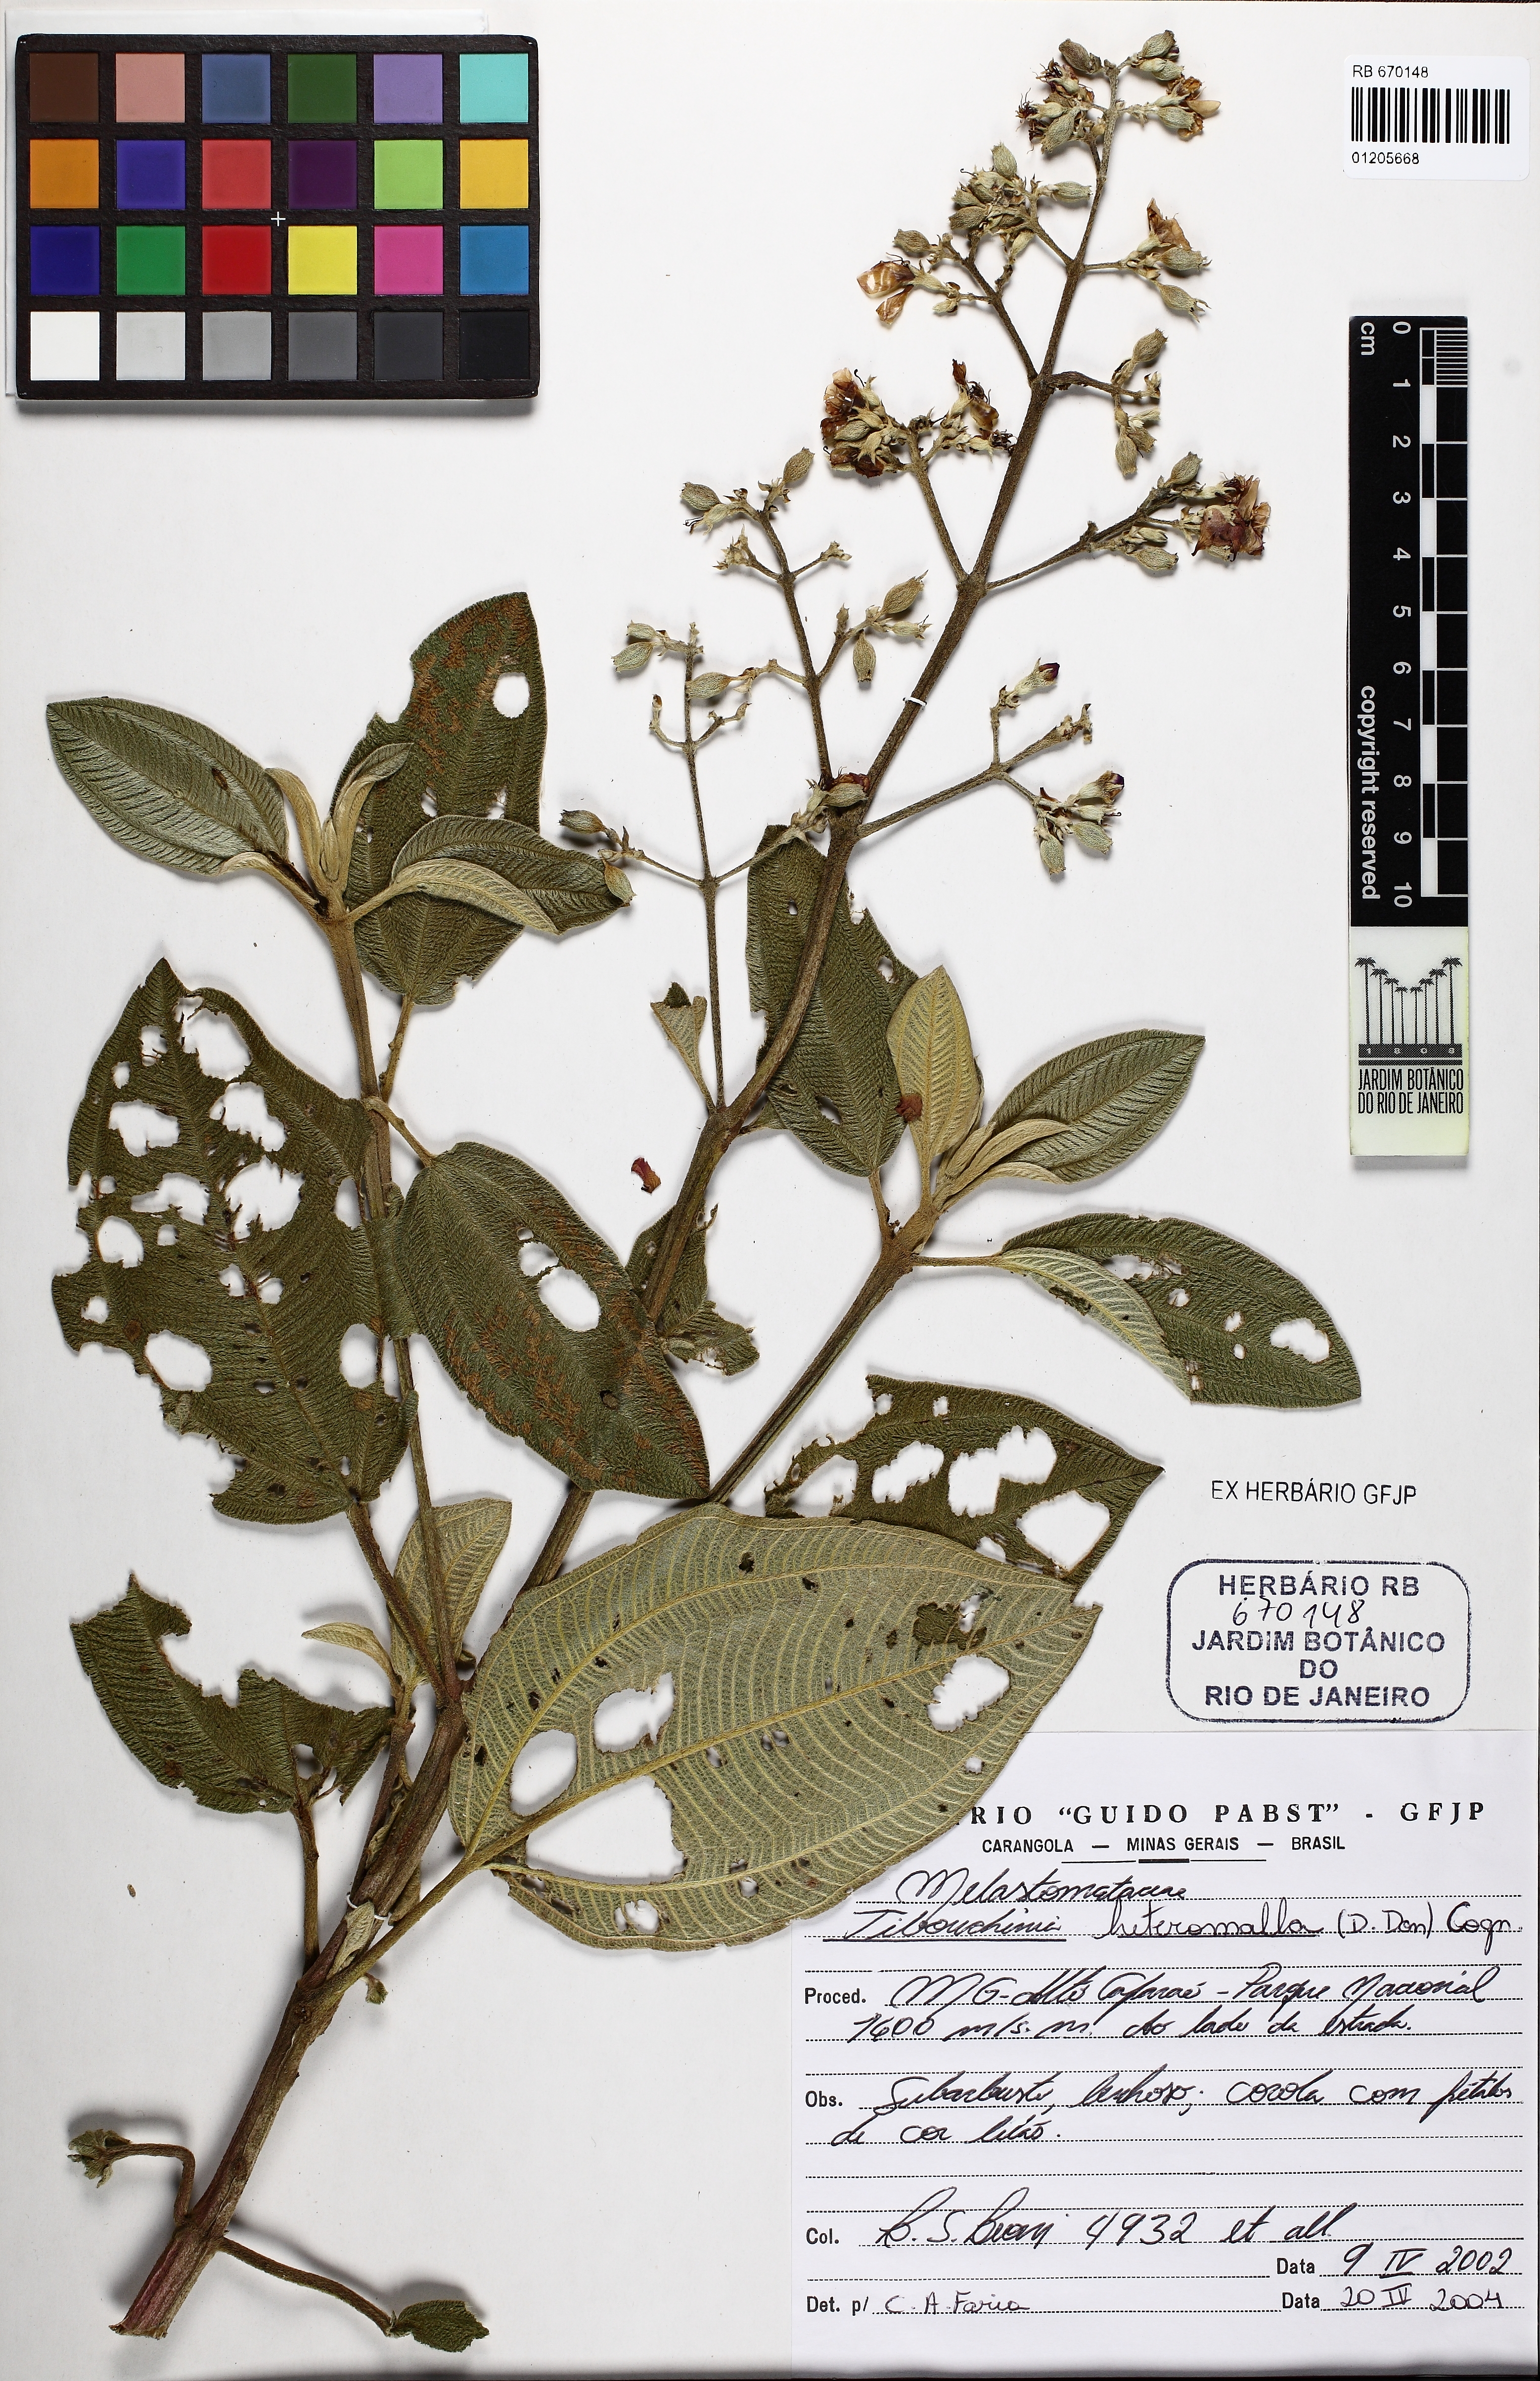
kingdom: Plantae
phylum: Tracheophyta
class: Magnoliopsida
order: Myrtales
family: Melastomataceae
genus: Pleroma
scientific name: Pleroma heteromallum
